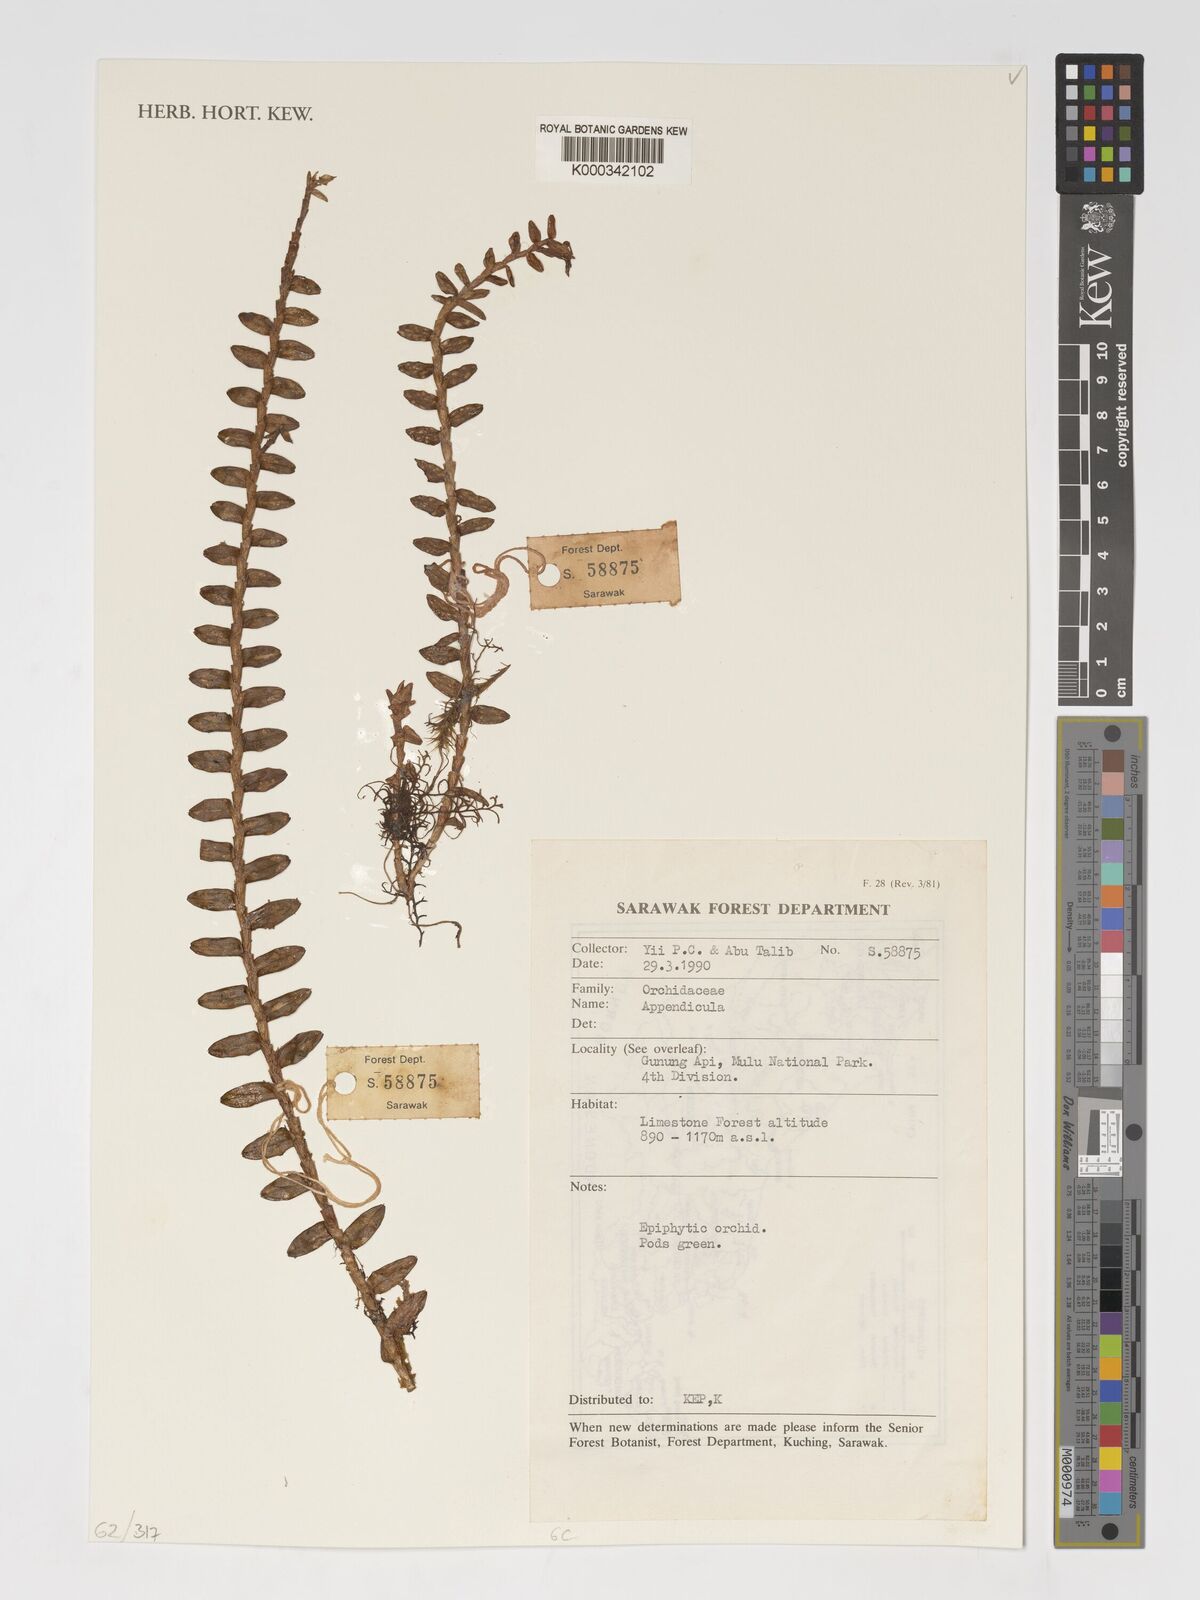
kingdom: Plantae
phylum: Tracheophyta
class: Liliopsida
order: Asparagales
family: Orchidaceae
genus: Appendicula
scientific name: Appendicula
